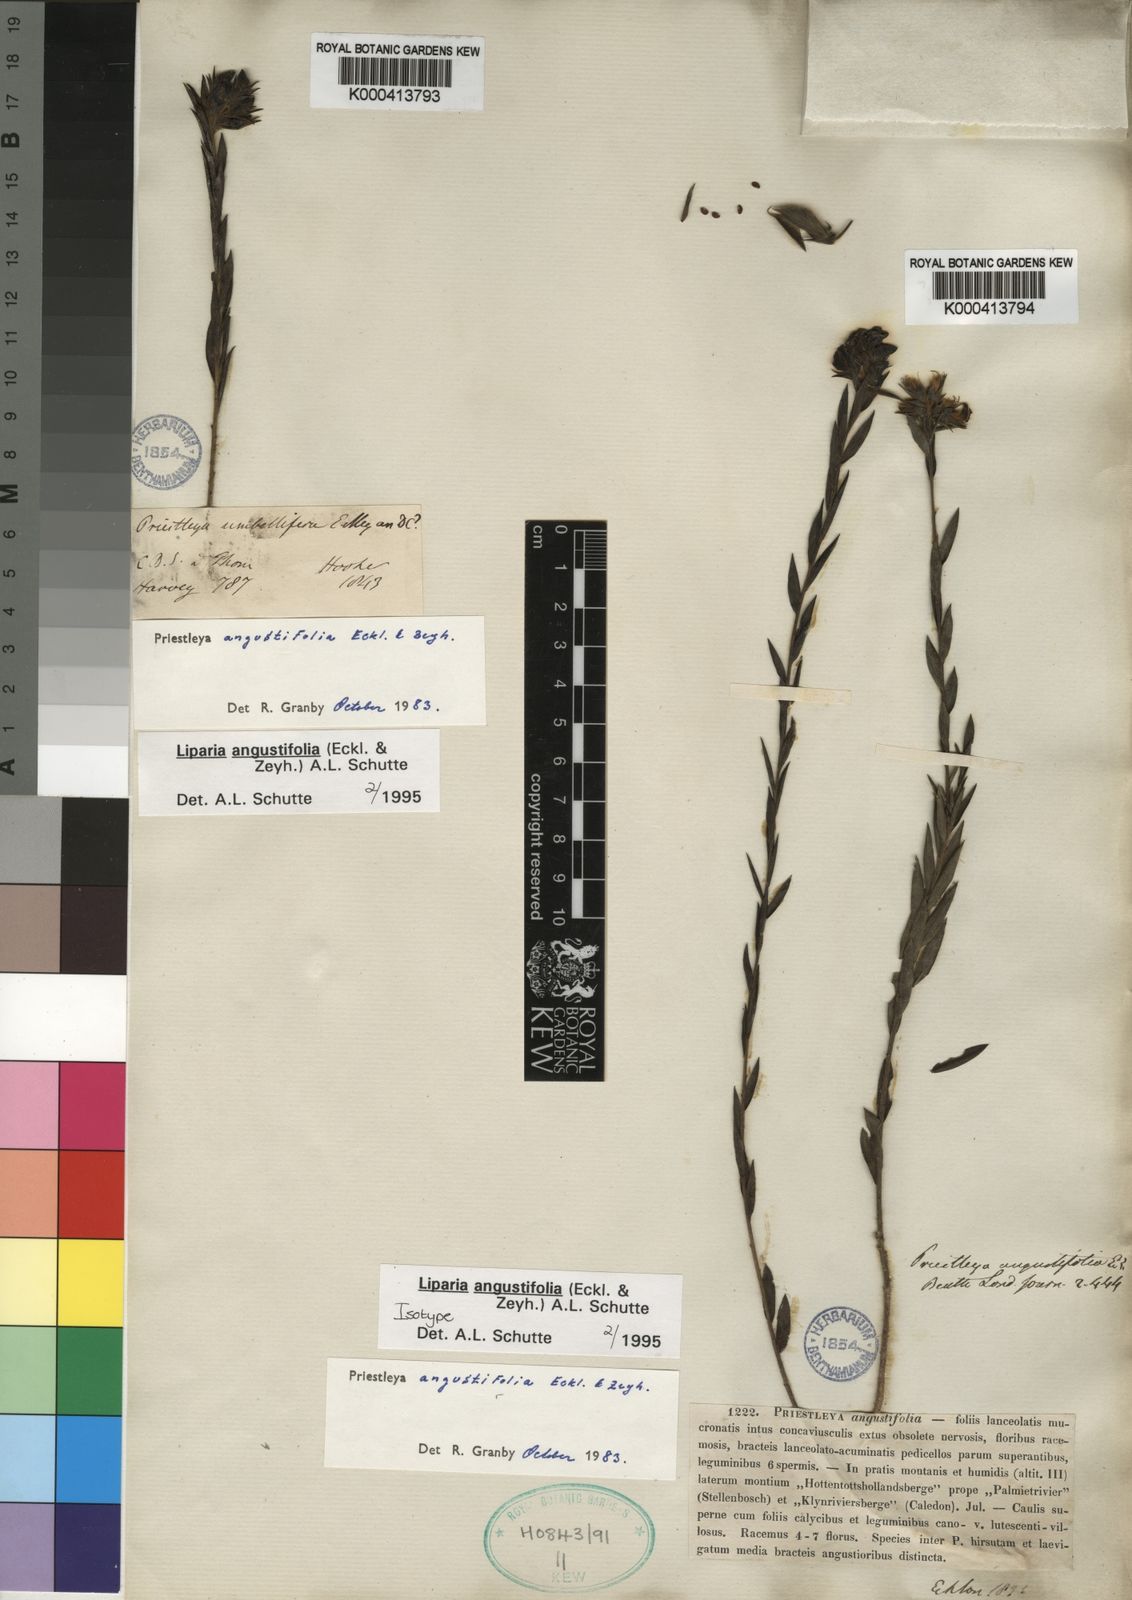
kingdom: Plantae
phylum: Tracheophyta
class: Magnoliopsida
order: Fabales
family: Fabaceae
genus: Liparia
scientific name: Liparia angustifolia
